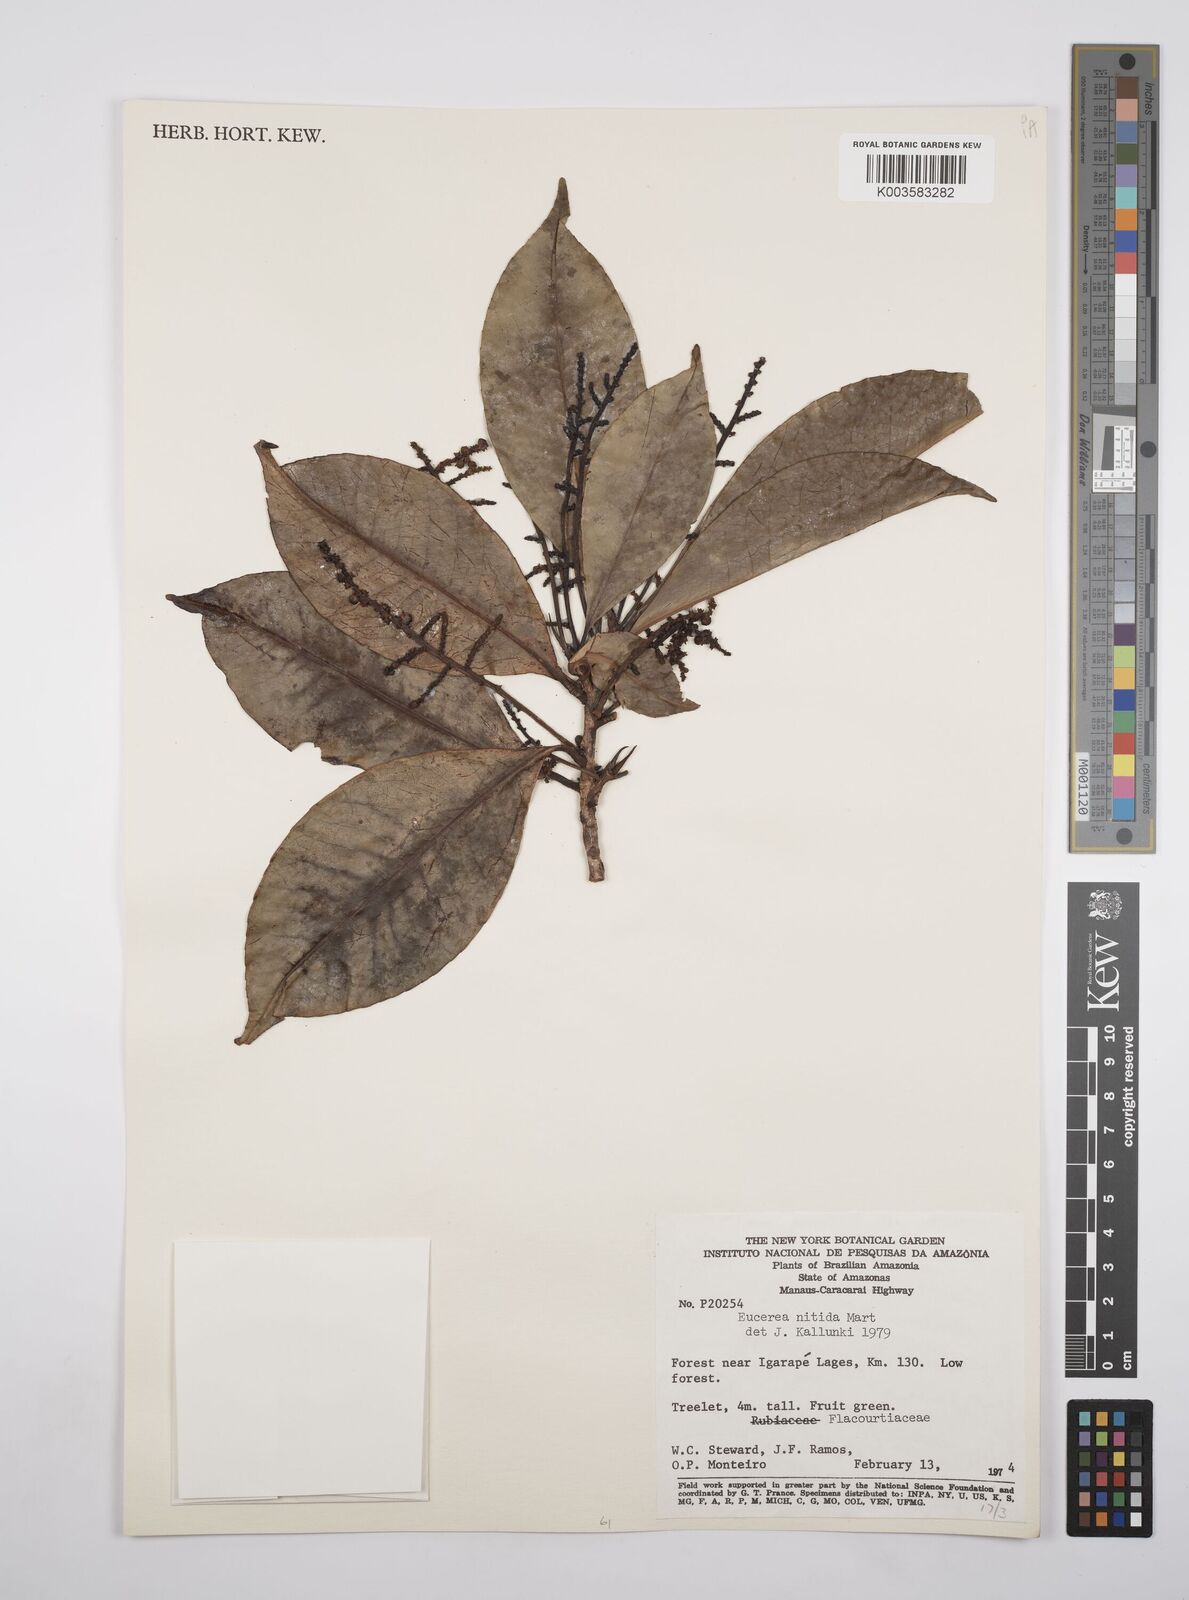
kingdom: Plantae
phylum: Tracheophyta
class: Magnoliopsida
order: Malpighiales
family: Salicaceae
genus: Casearia
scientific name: Casearia euceraea
